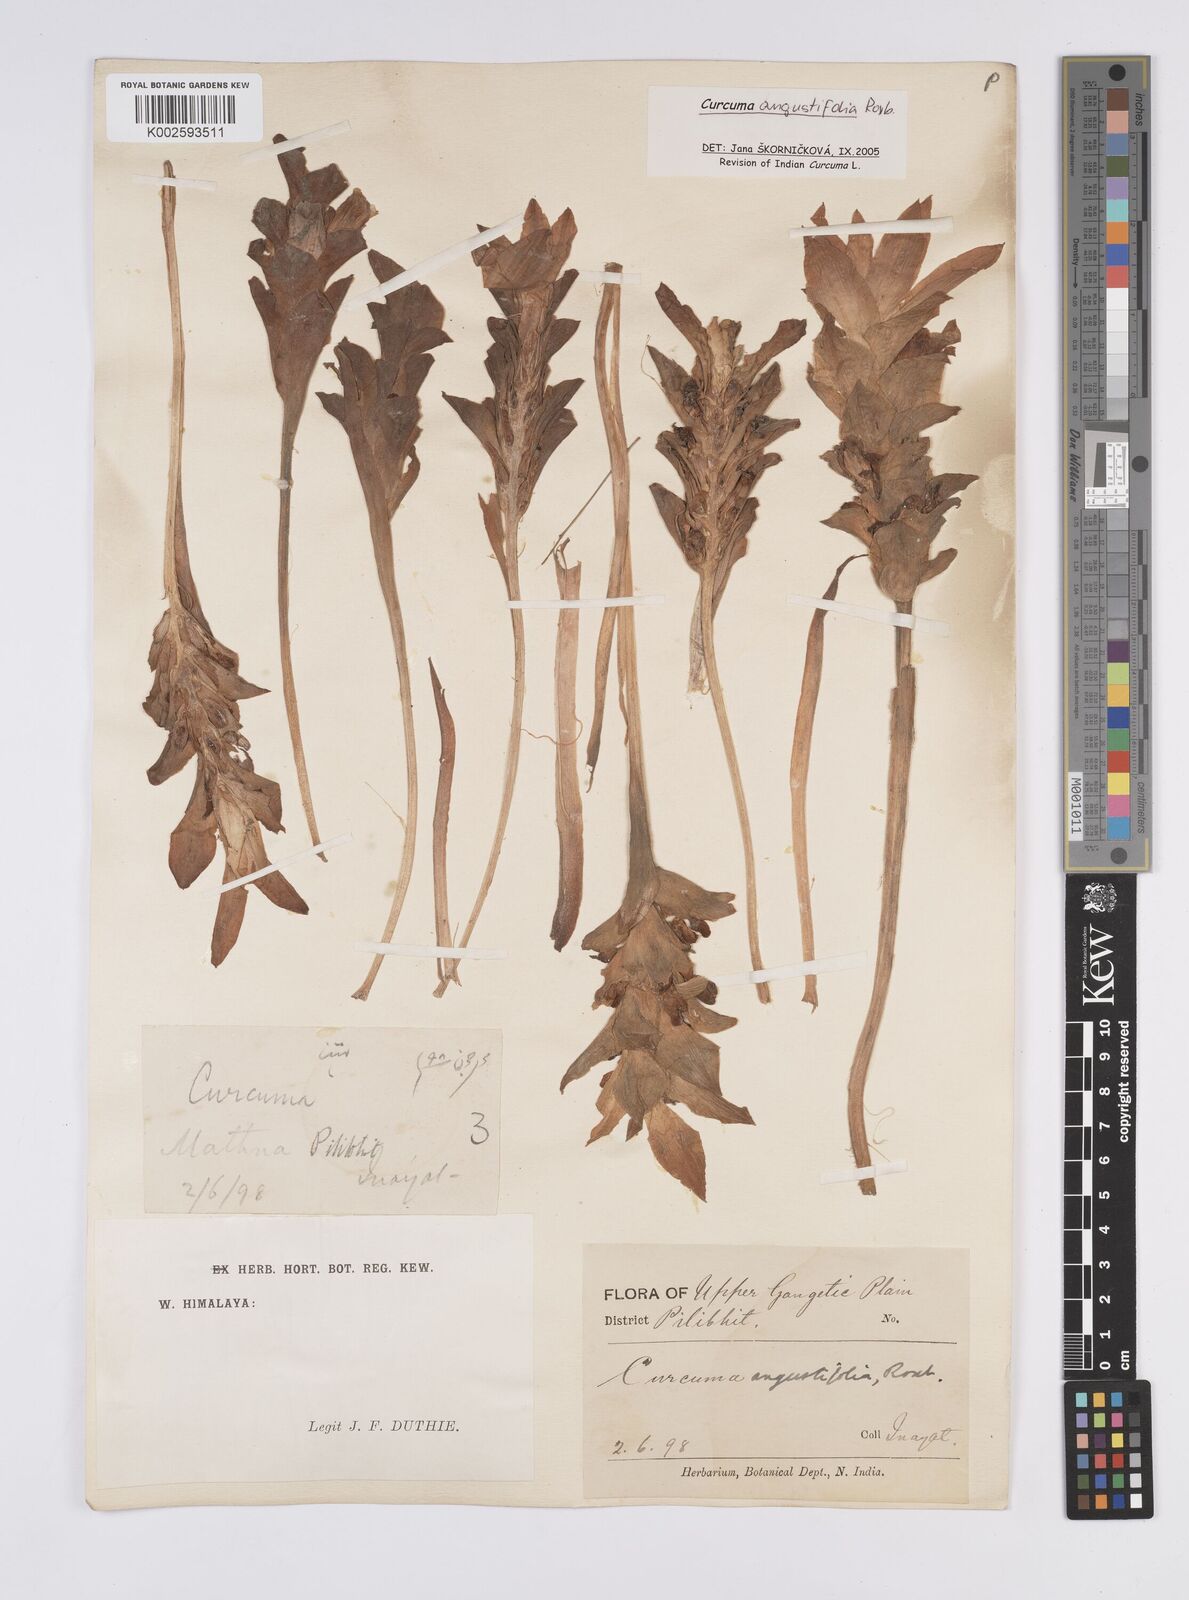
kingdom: Plantae
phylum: Tracheophyta
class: Liliopsida
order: Zingiberales
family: Zingiberaceae
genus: Curcuma
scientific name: Curcuma angustifolia
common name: East indian arrowroot
